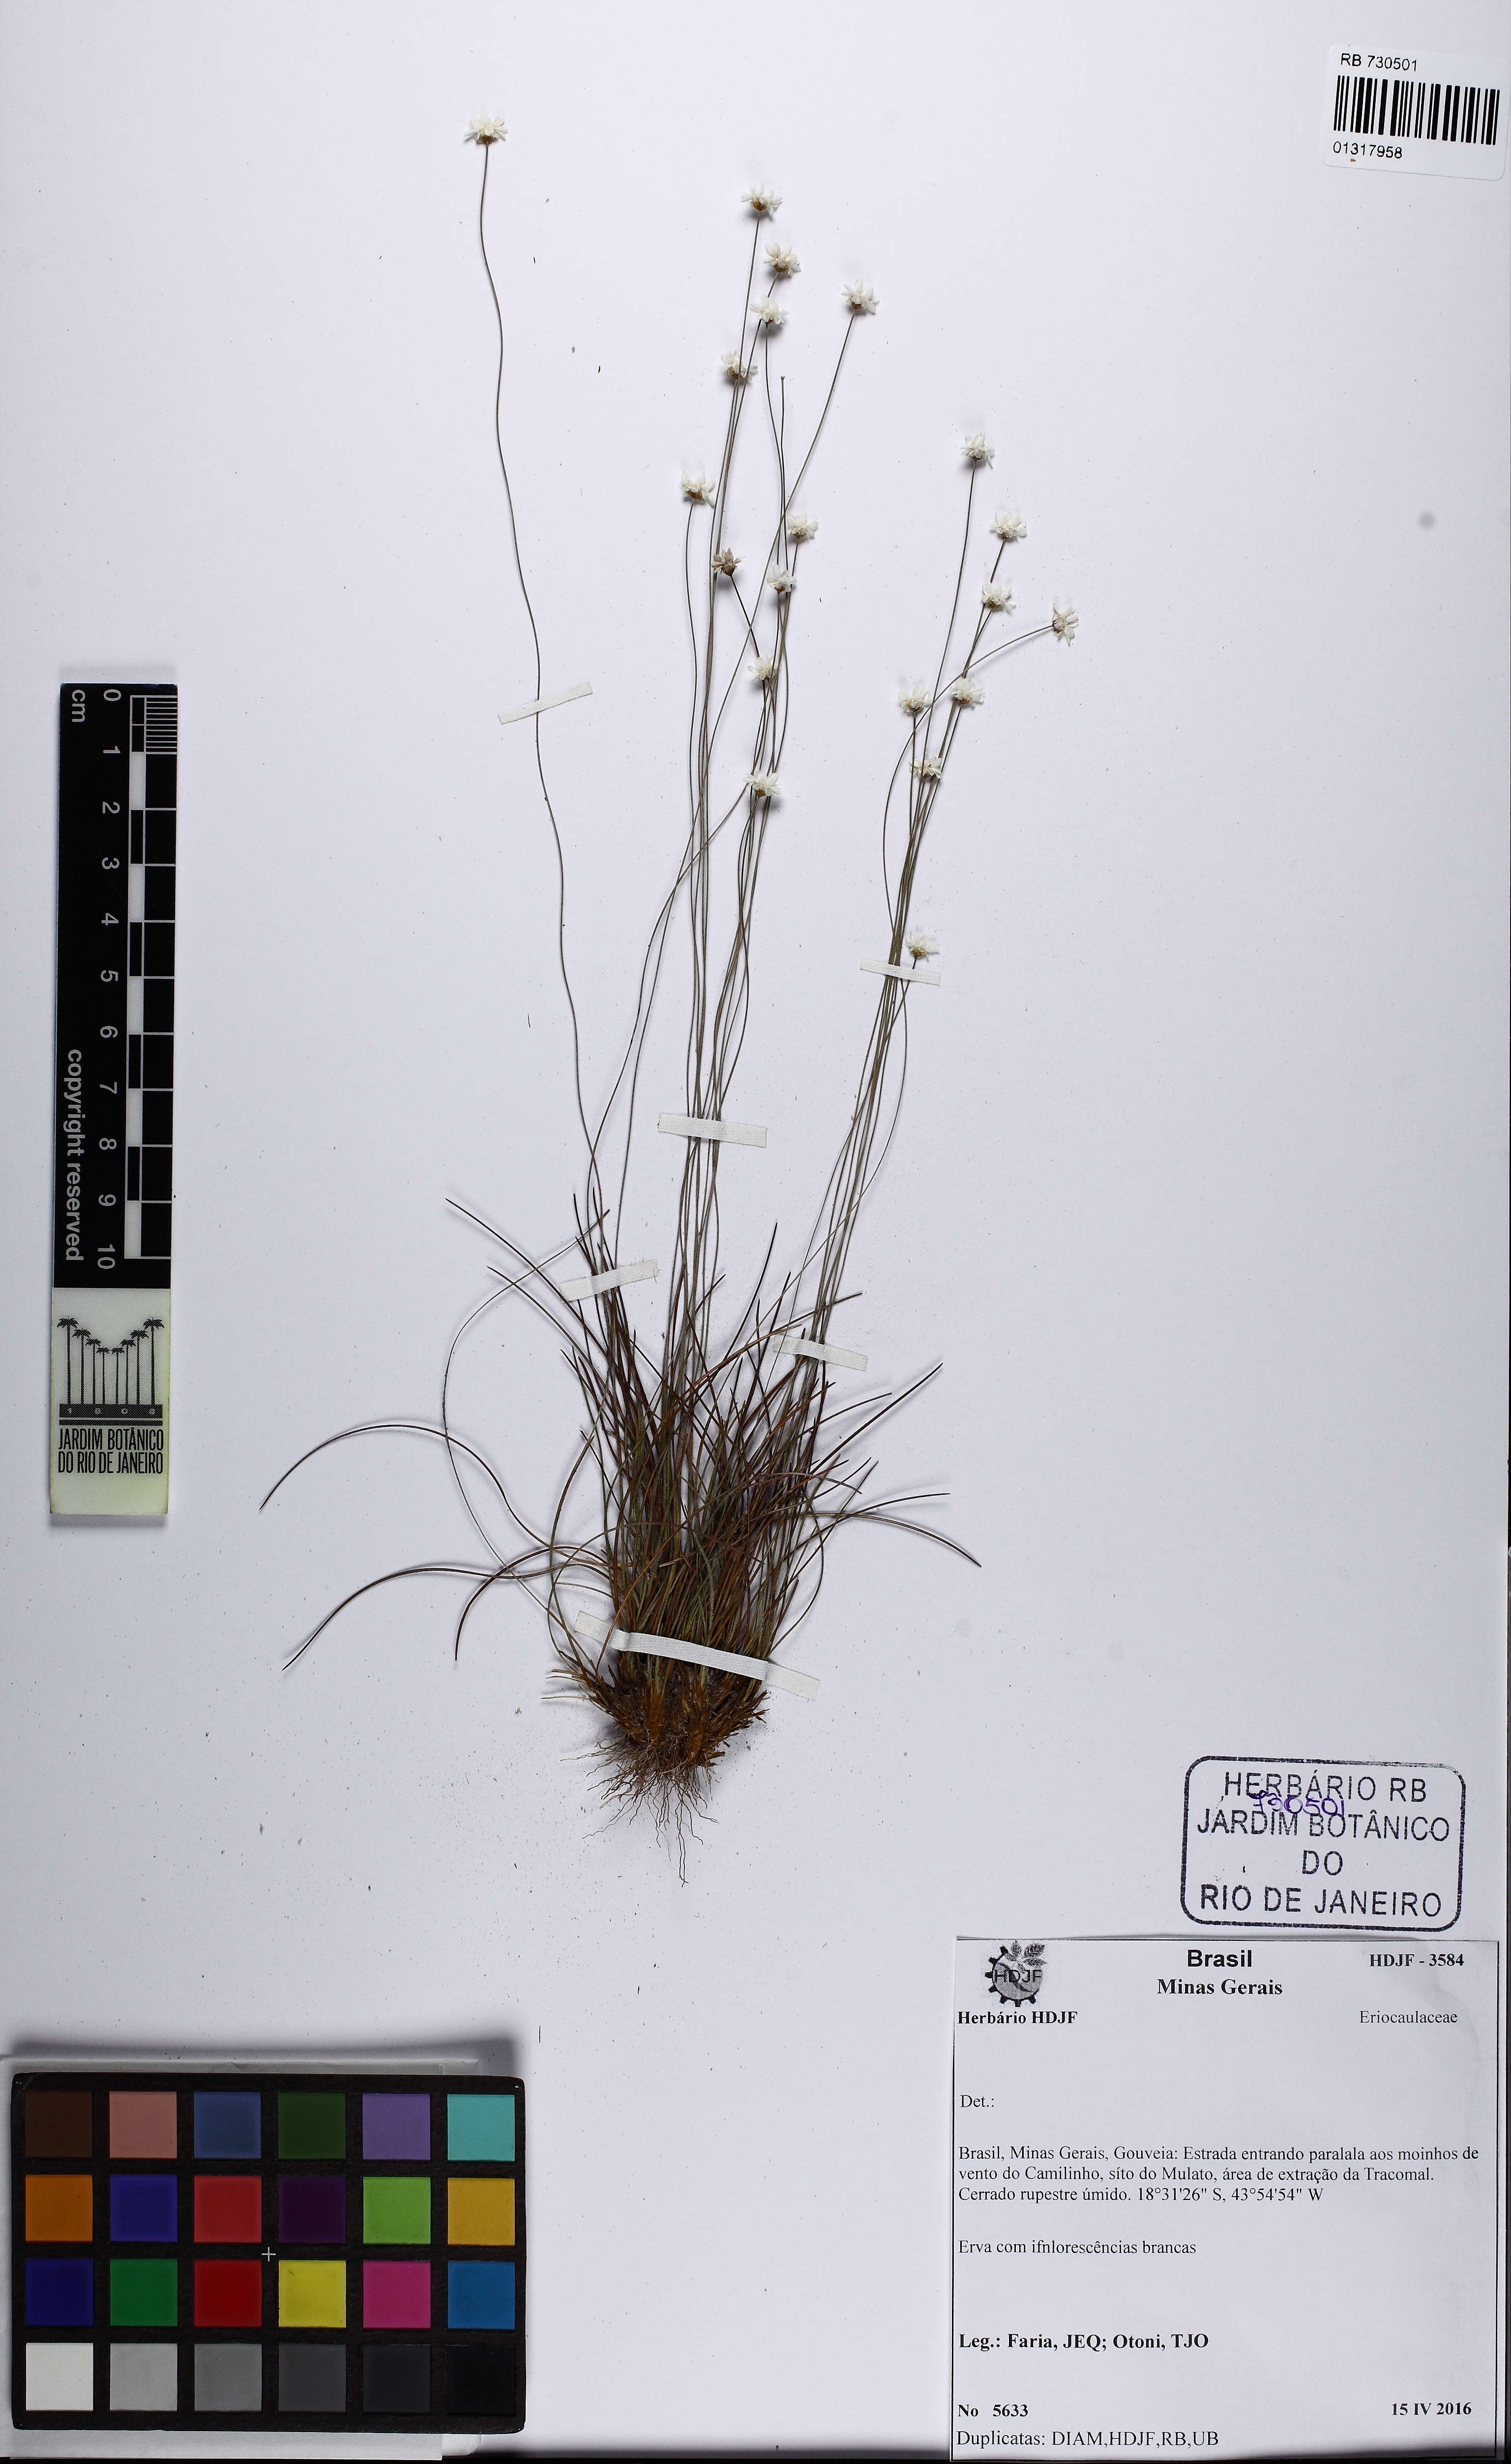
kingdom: Plantae
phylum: Tracheophyta
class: Liliopsida
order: Poales
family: Eriocaulaceae
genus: Comanthera
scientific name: Comanthera
